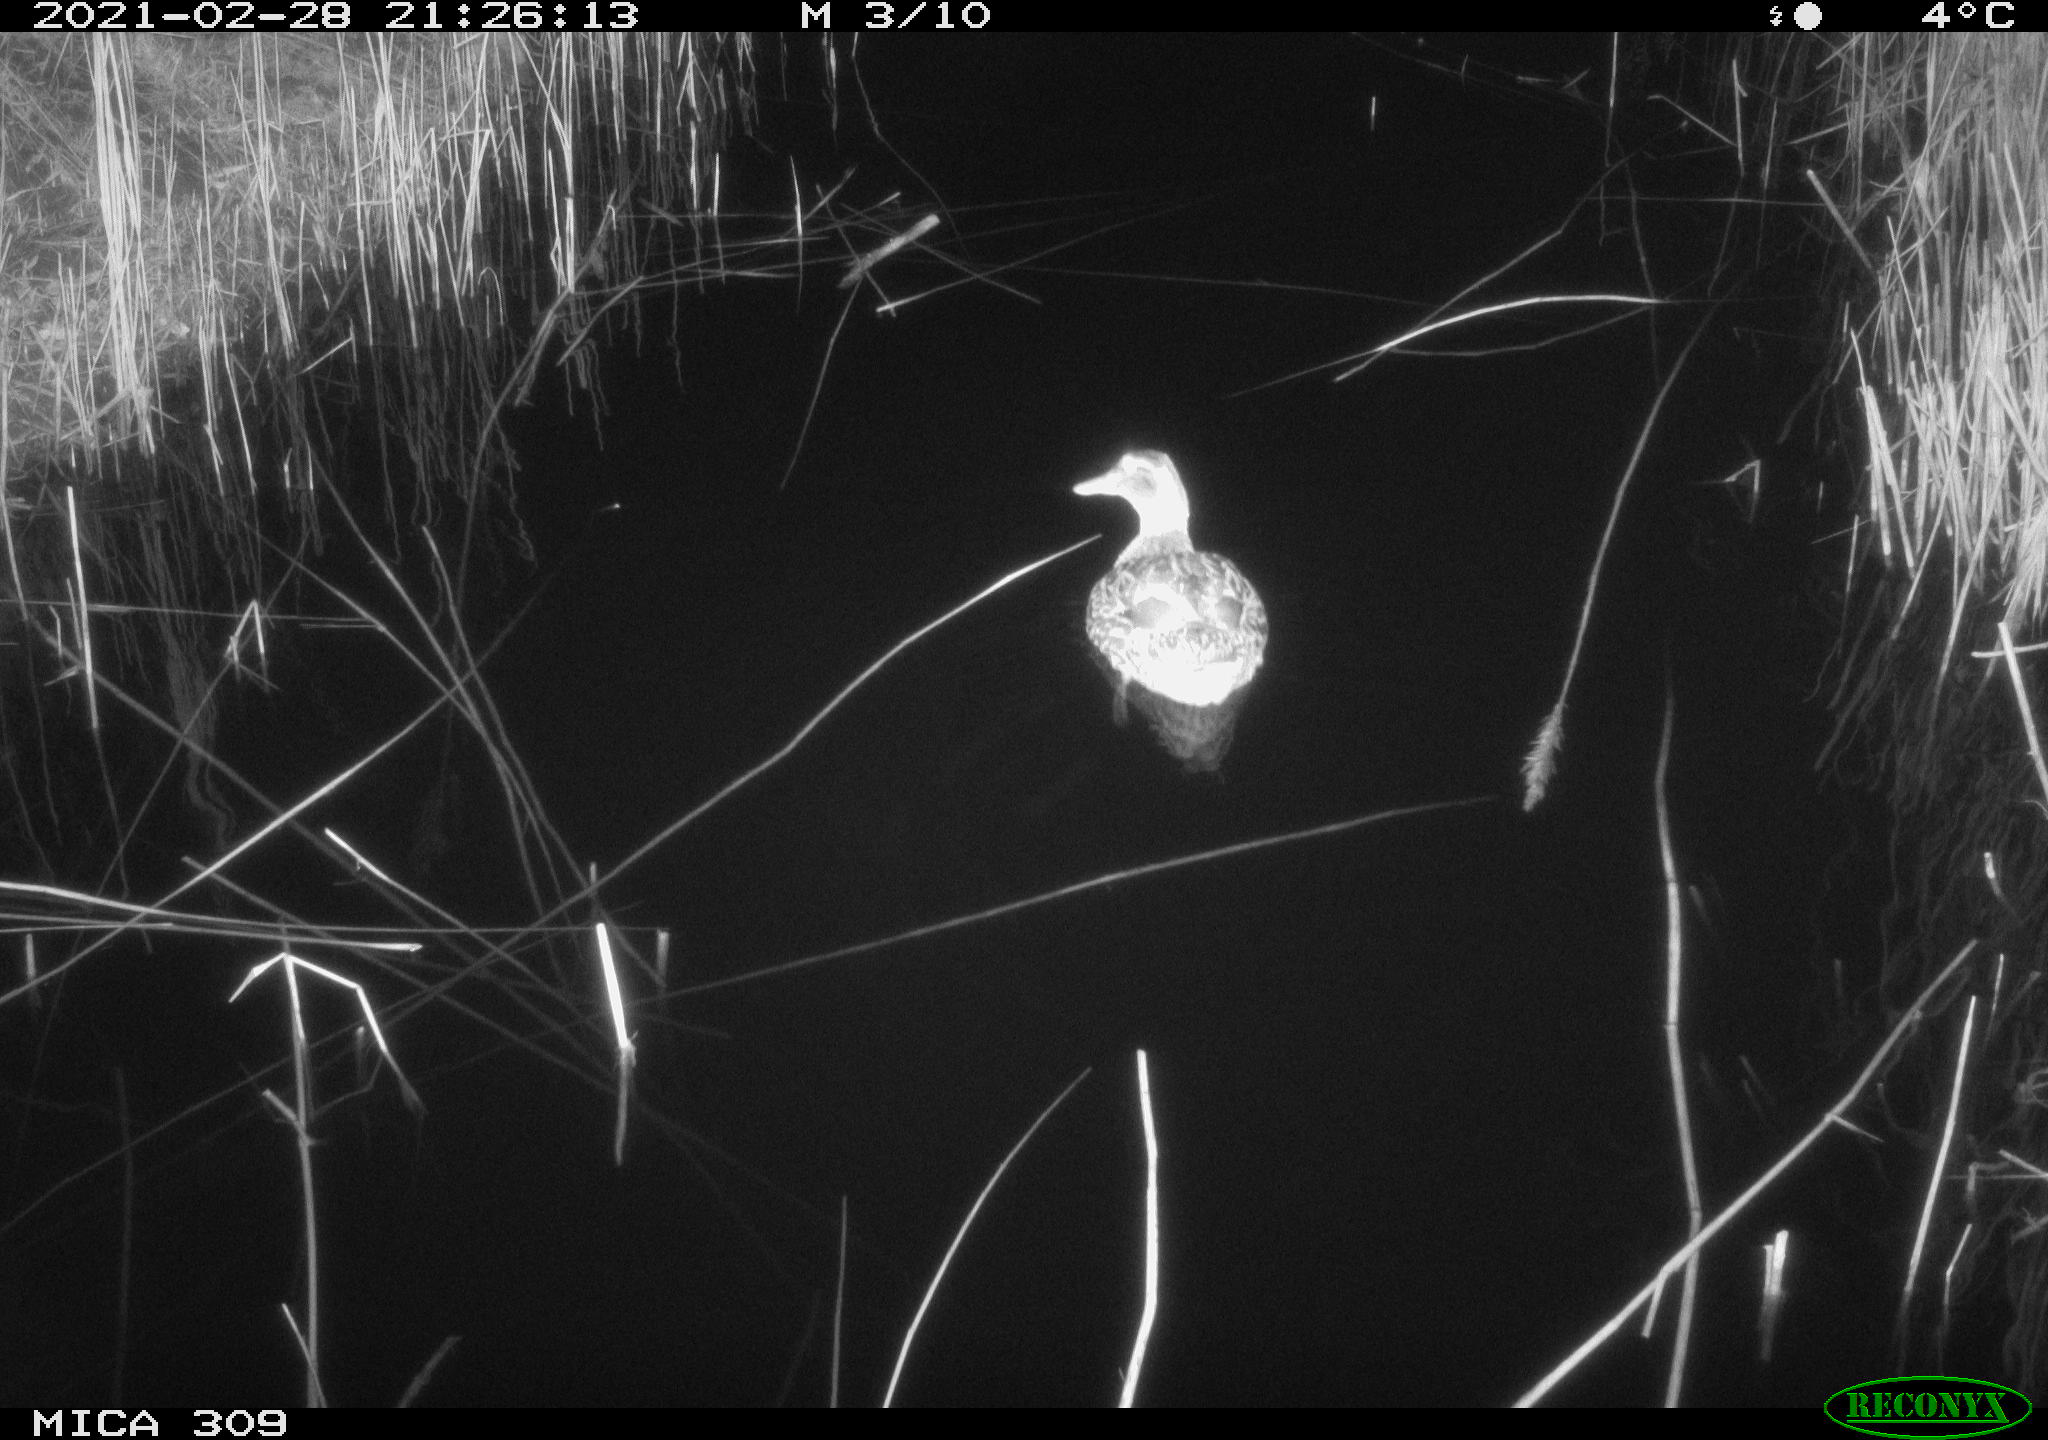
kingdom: Animalia
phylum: Chordata
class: Aves
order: Anseriformes
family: Anatidae
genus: Anas
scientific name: Anas platyrhynchos
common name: Mallard
